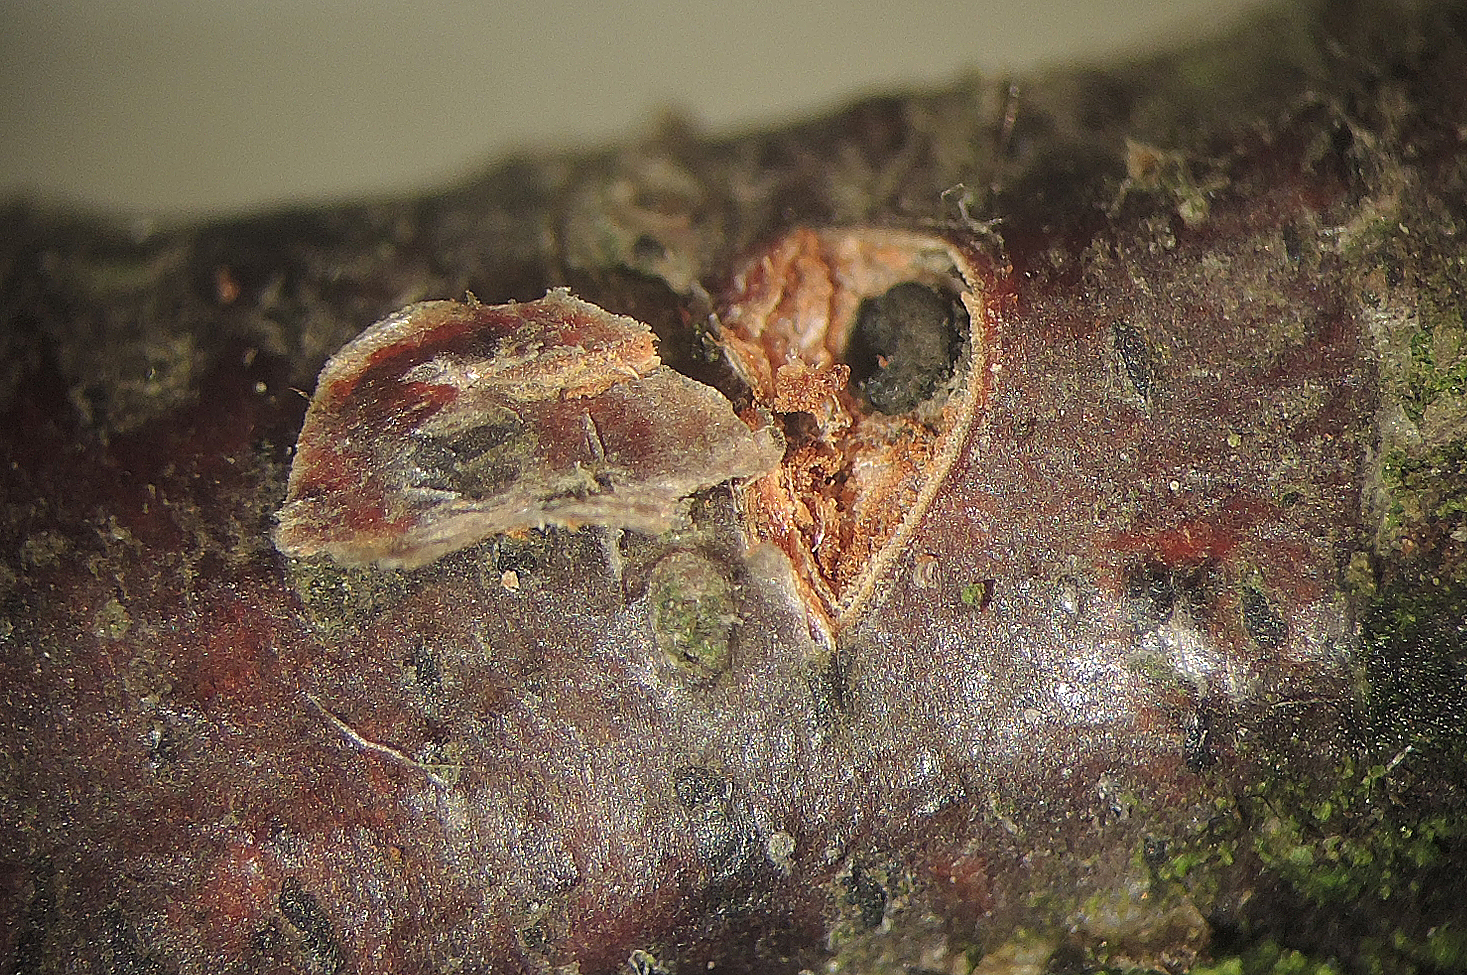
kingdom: Fungi
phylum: Ascomycota
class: Sordariomycetes
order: Diaporthales
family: Gnomoniaceae
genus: Cryptosporella
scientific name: Cryptosporella betulae
